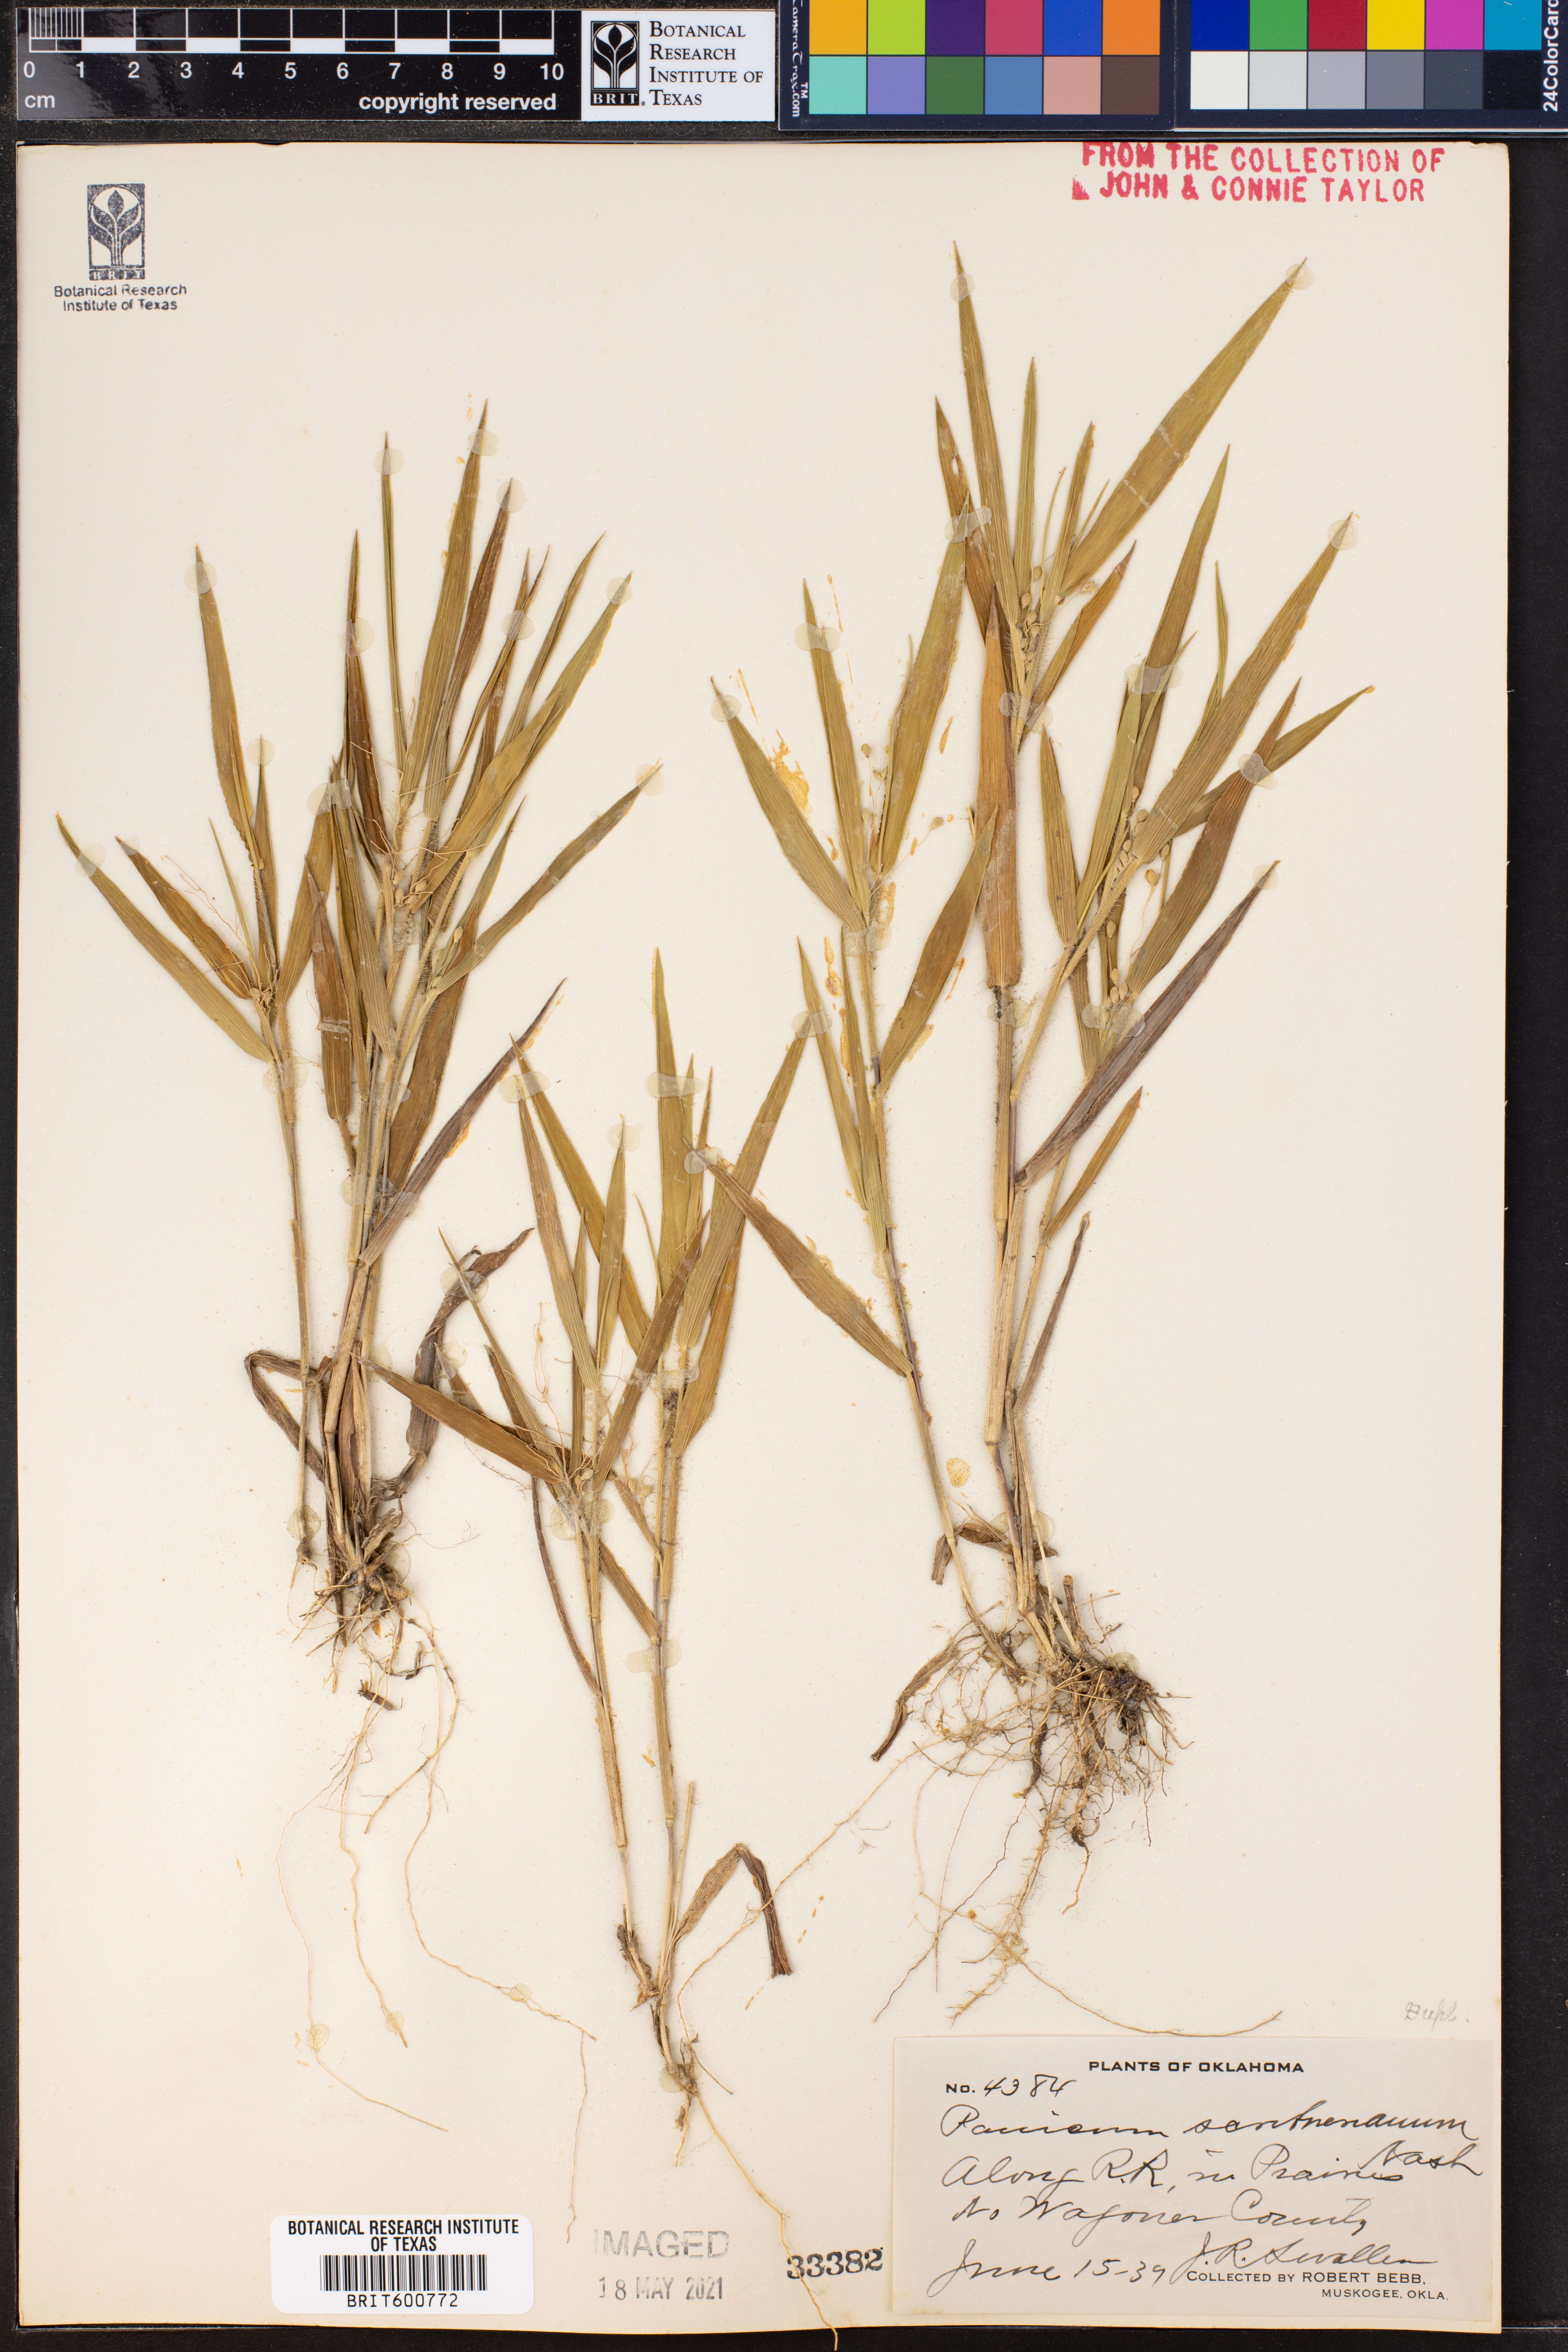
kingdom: Plantae
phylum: Tracheophyta
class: Liliopsida
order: Poales
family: Poaceae
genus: Dichanthelium
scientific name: Dichanthelium scribnerianum
